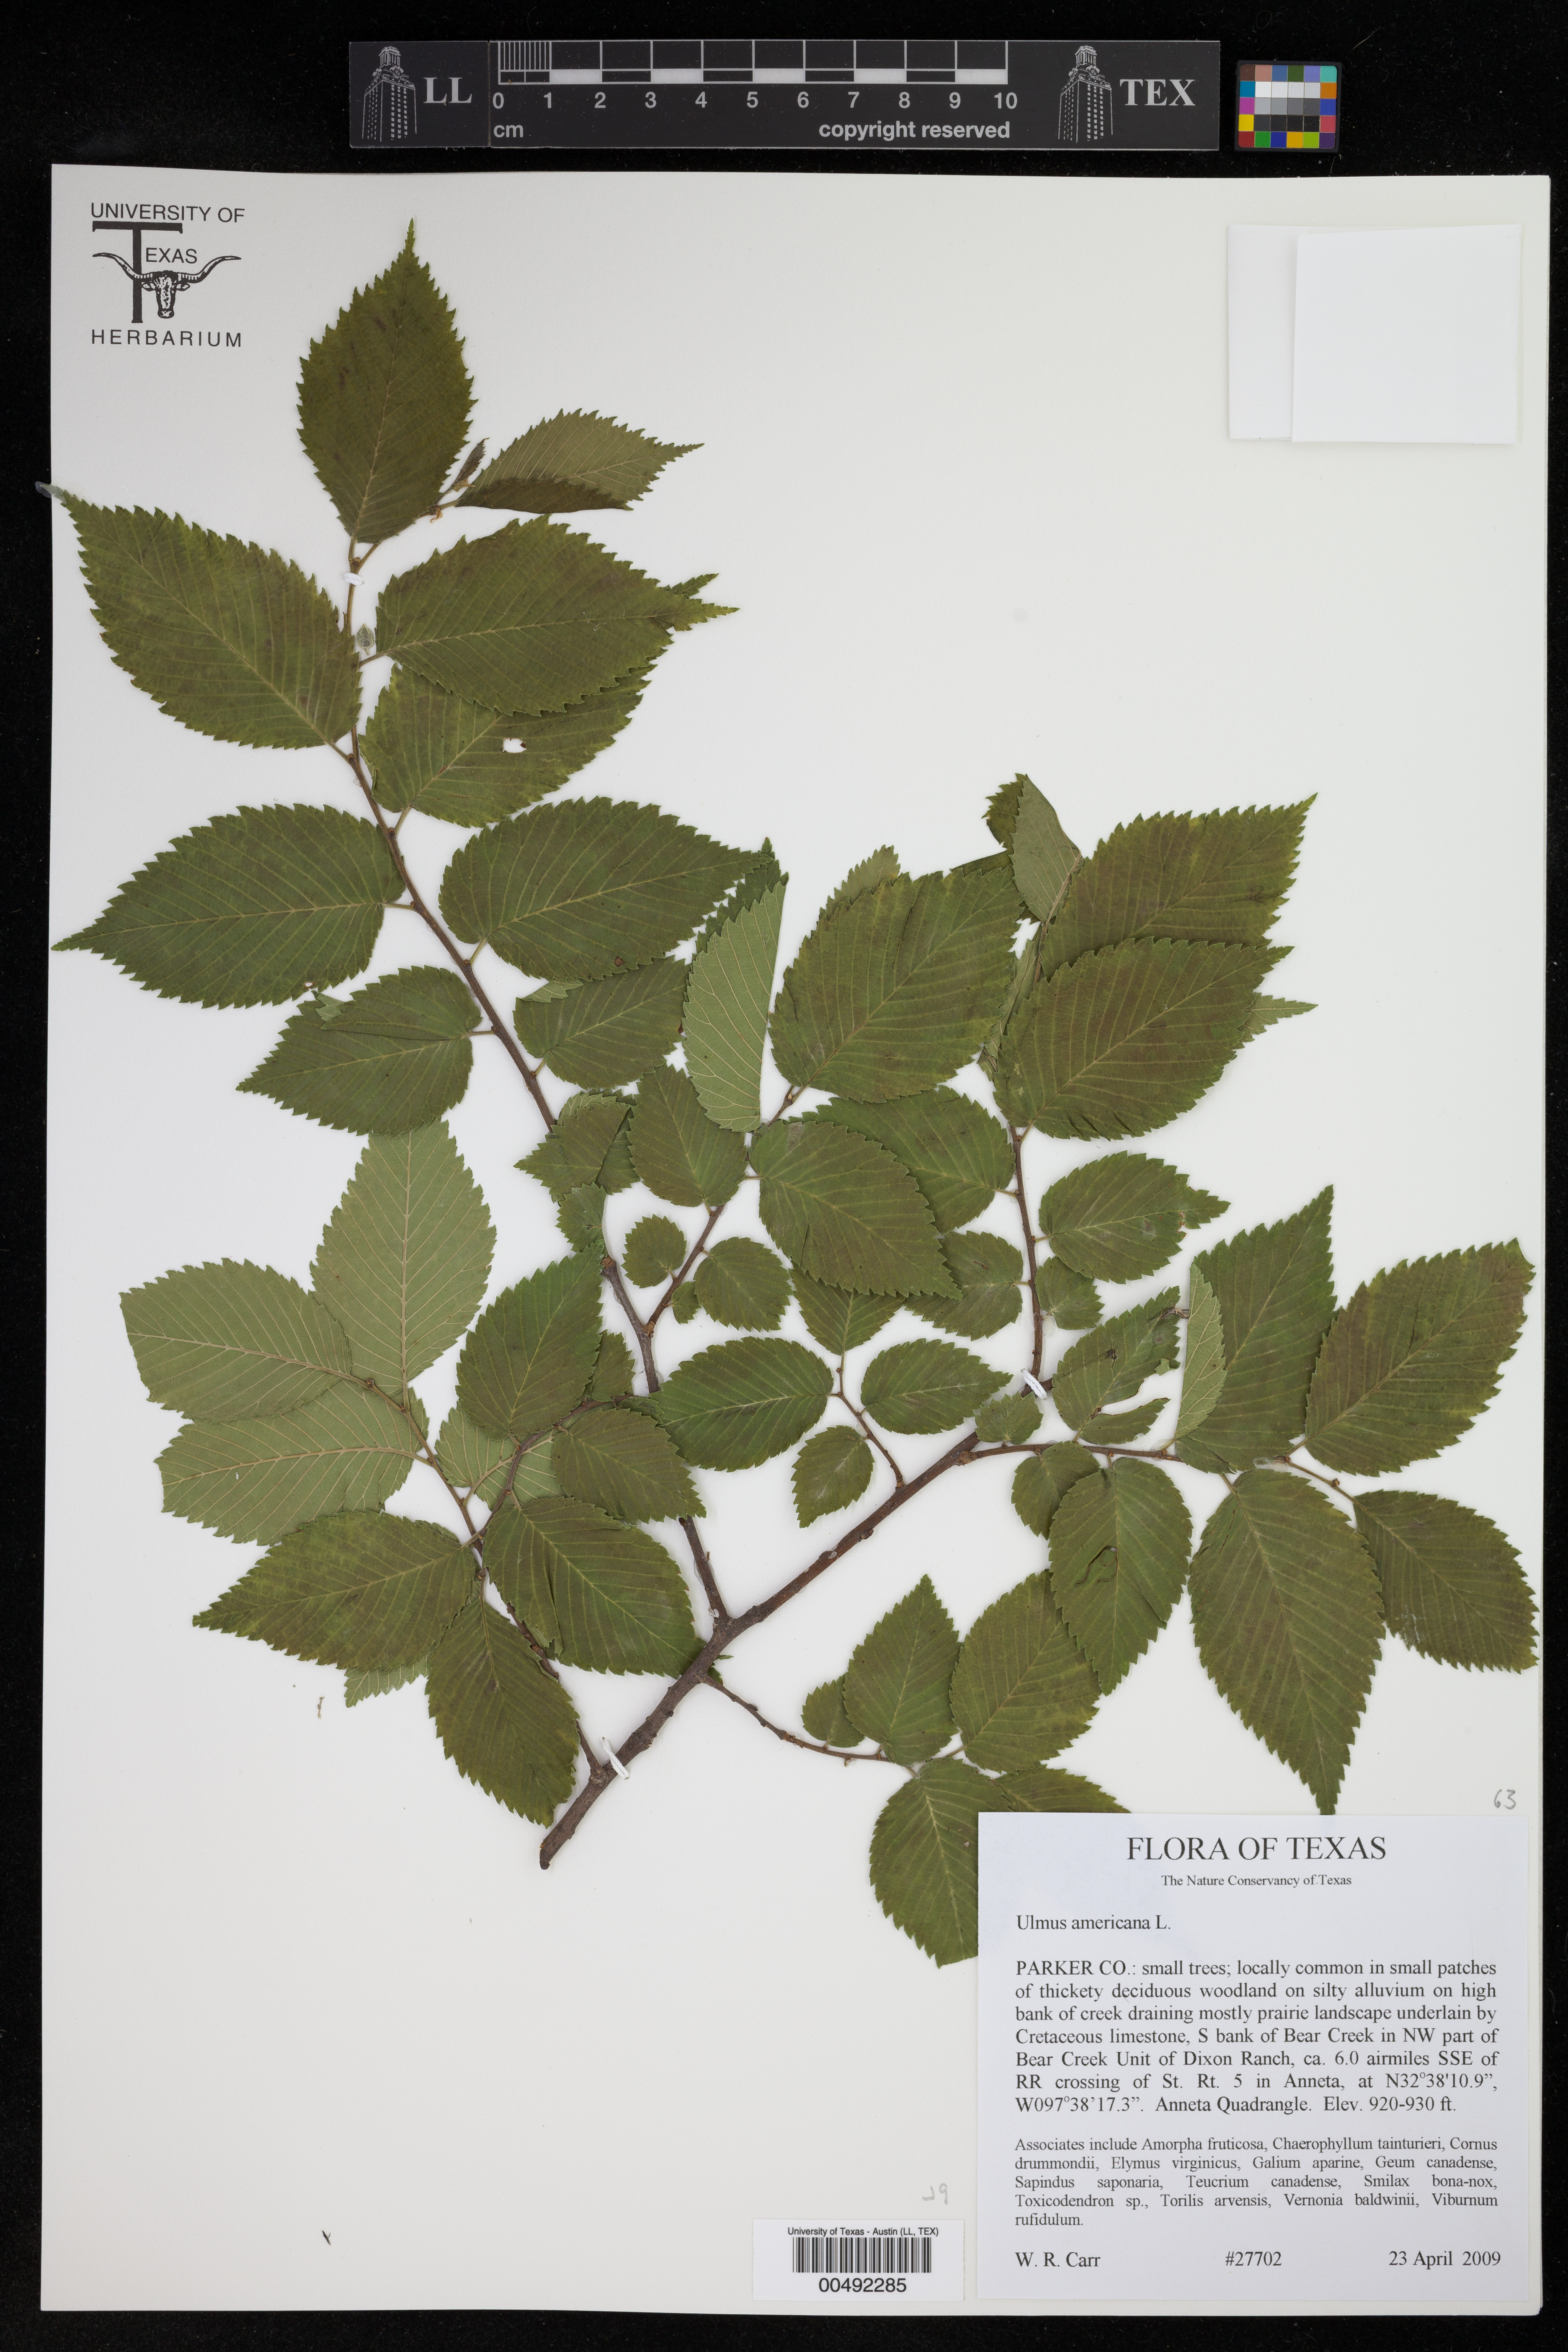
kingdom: Plantae
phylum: Tracheophyta
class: Magnoliopsida
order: Rosales
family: Ulmaceae
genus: Ulmus
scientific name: Ulmus americana
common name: American elm
